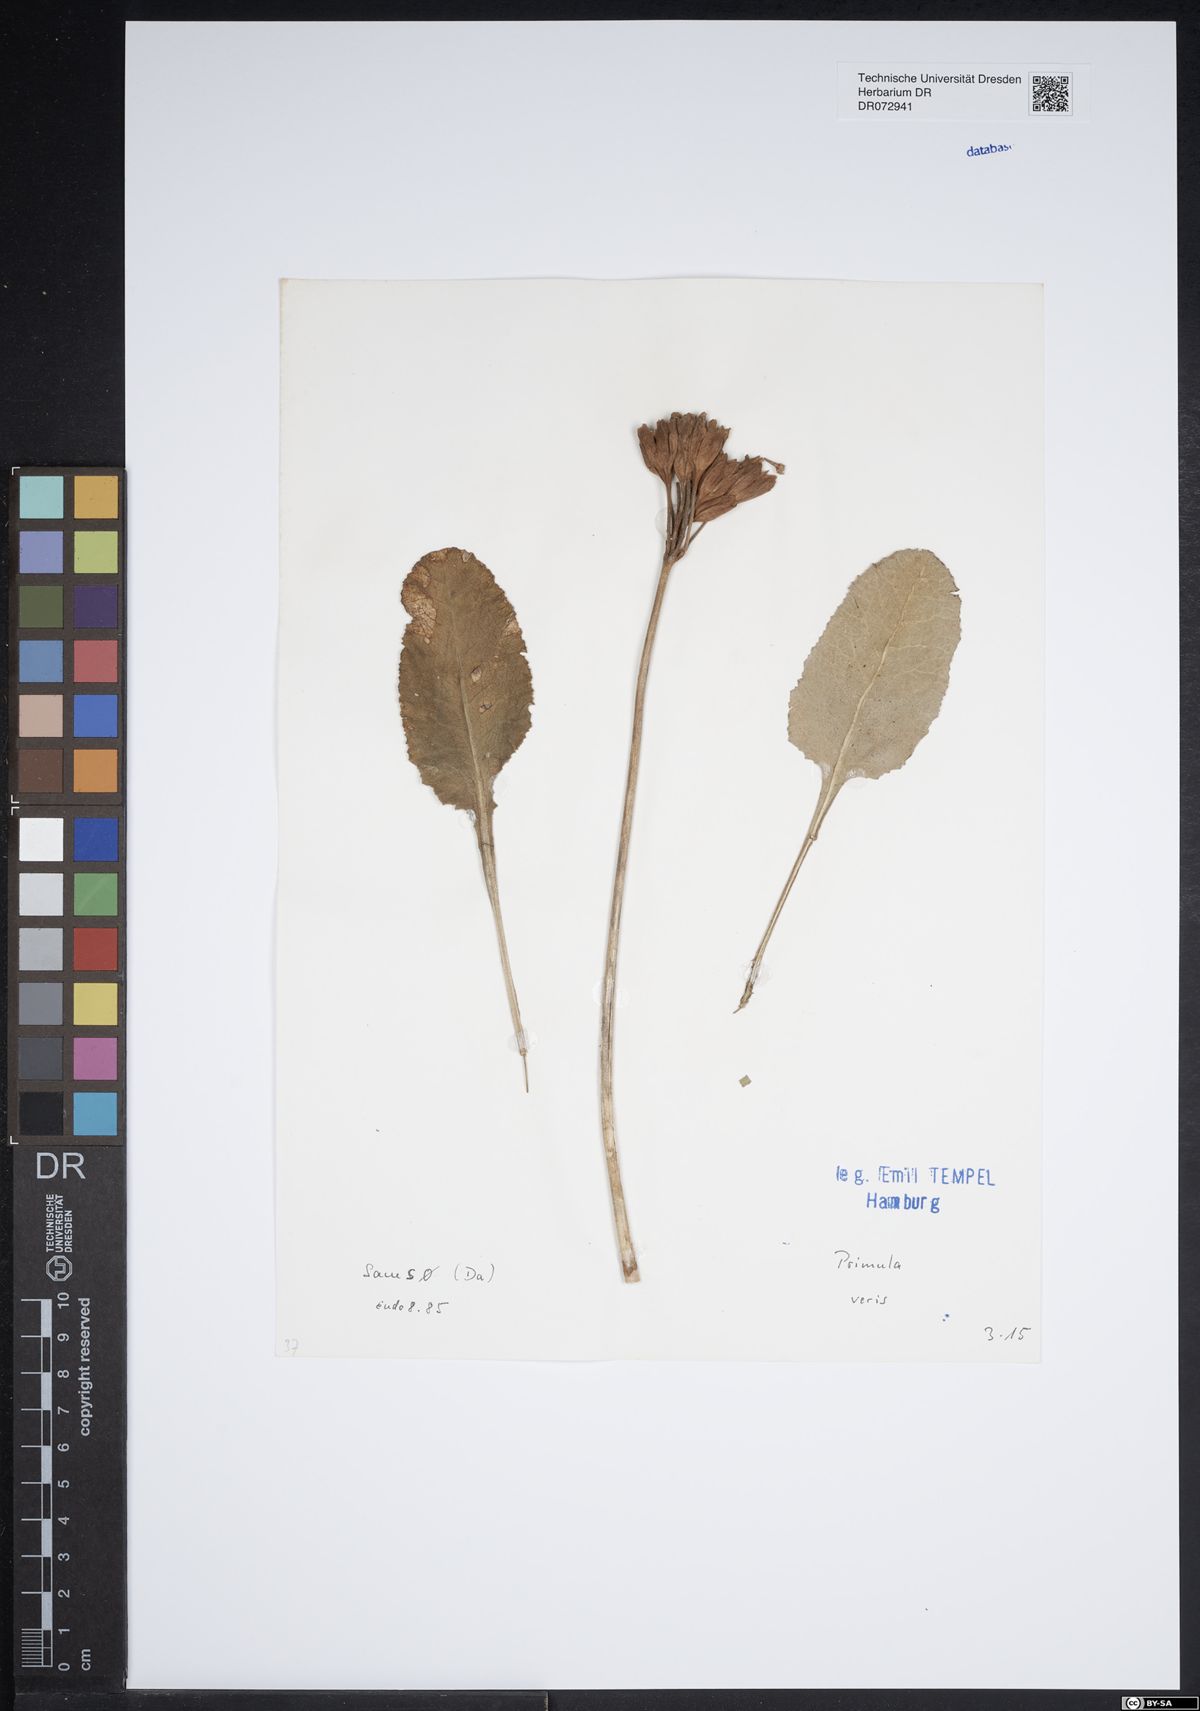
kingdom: Plantae
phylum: Tracheophyta
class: Magnoliopsida
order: Ericales
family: Primulaceae
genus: Primula
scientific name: Primula veris
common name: Cowslip
